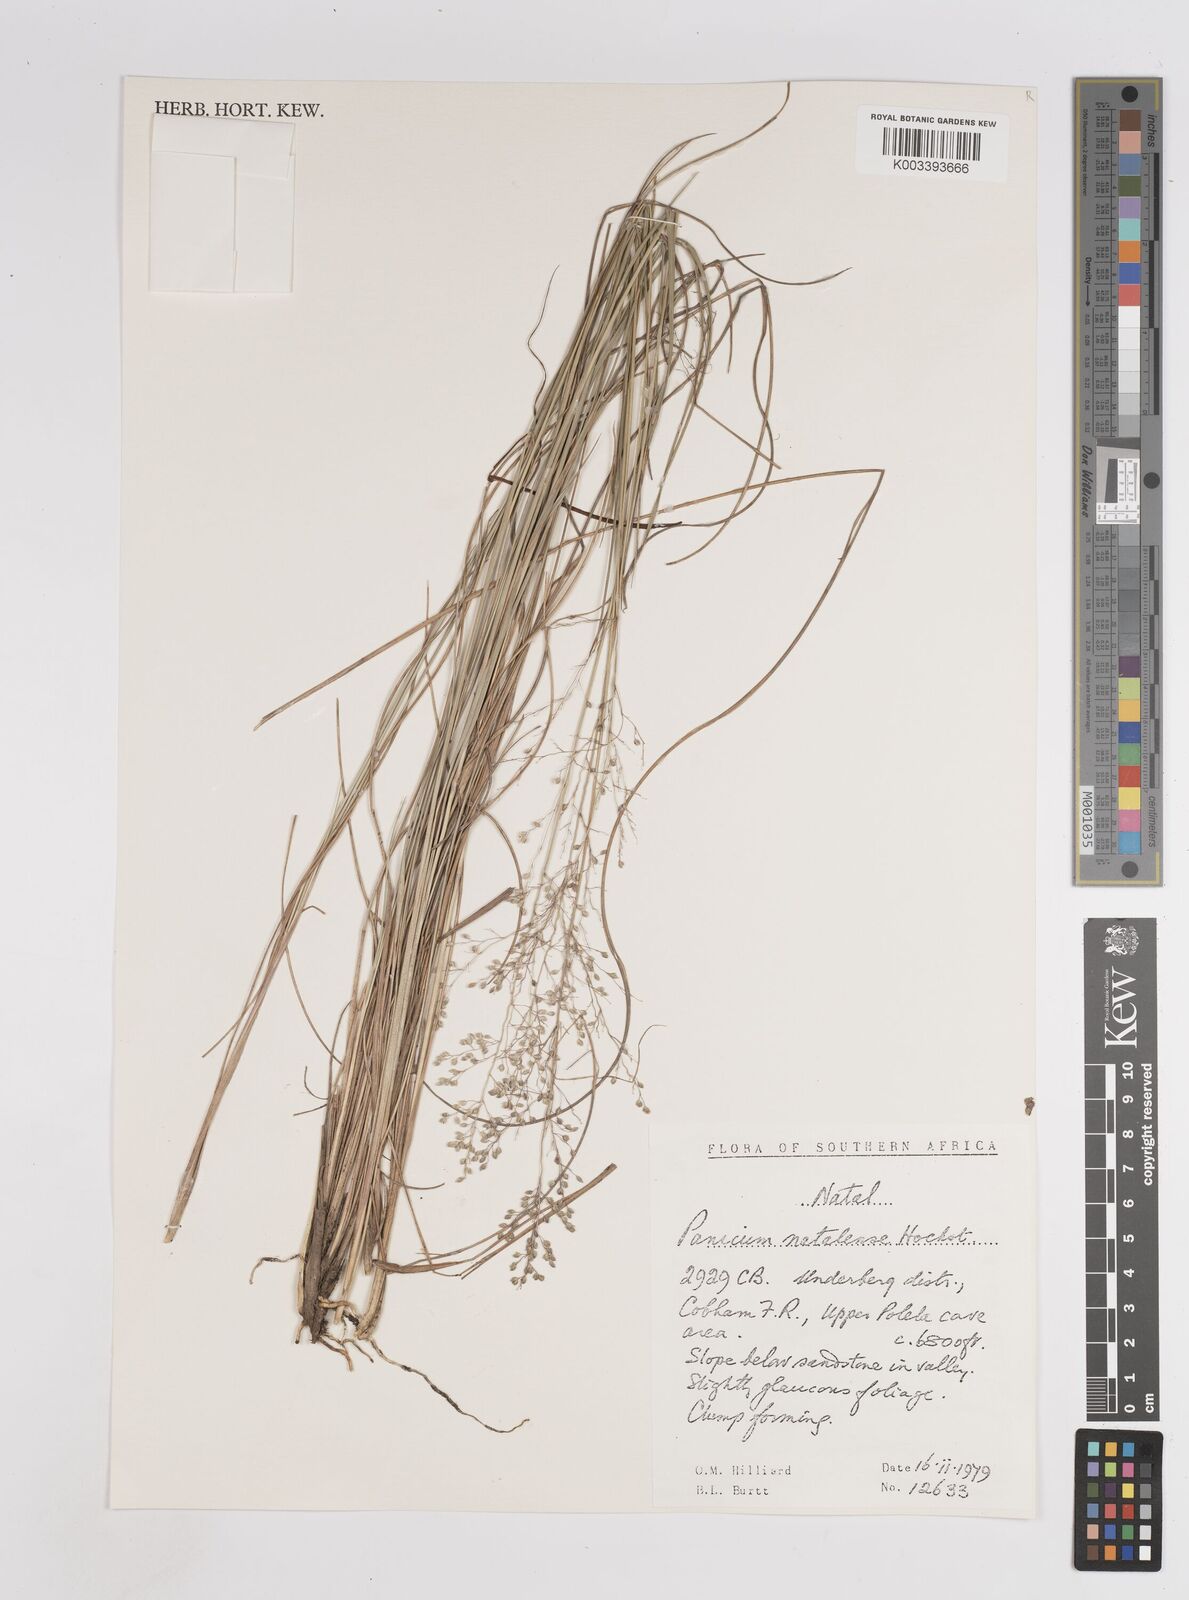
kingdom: Plantae
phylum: Tracheophyta
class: Liliopsida
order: Poales
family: Poaceae
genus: Trichanthecium
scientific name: Trichanthecium natalense
